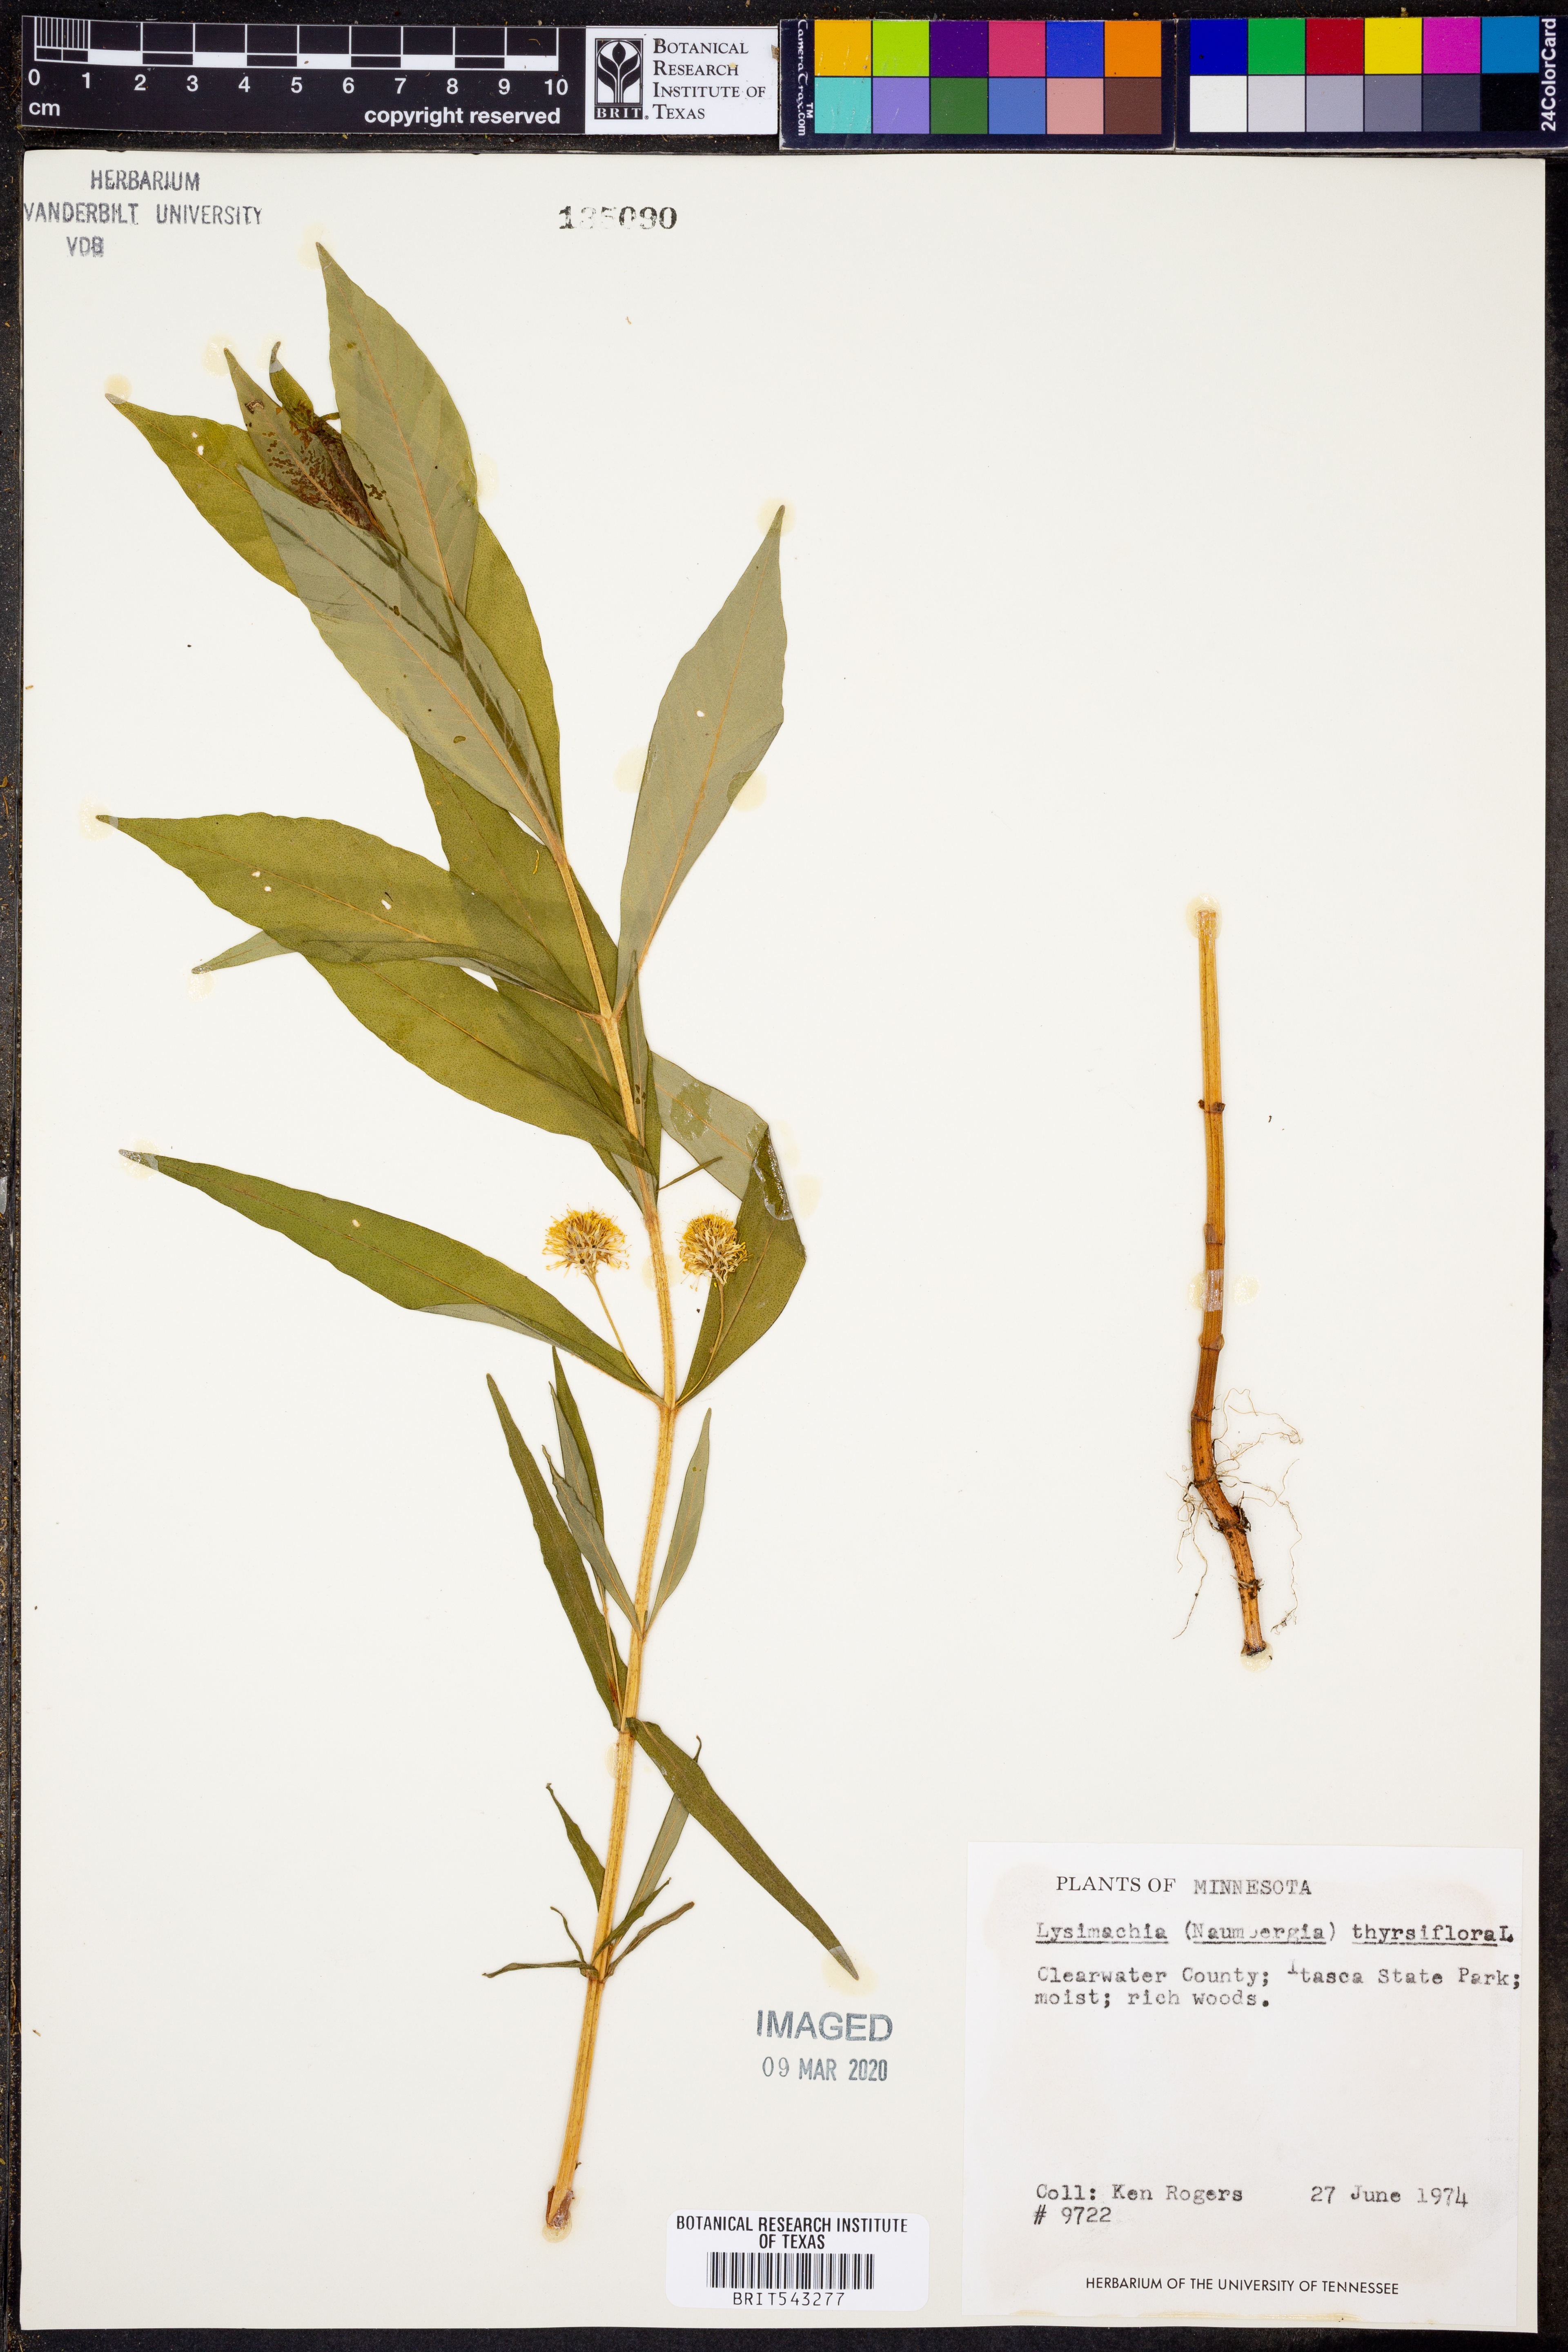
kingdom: Plantae
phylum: Tracheophyta
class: Magnoliopsida
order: Ericales
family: Primulaceae
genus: Lysimachia
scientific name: Lysimachia thyrsiflora
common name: Tufted loosestrife
